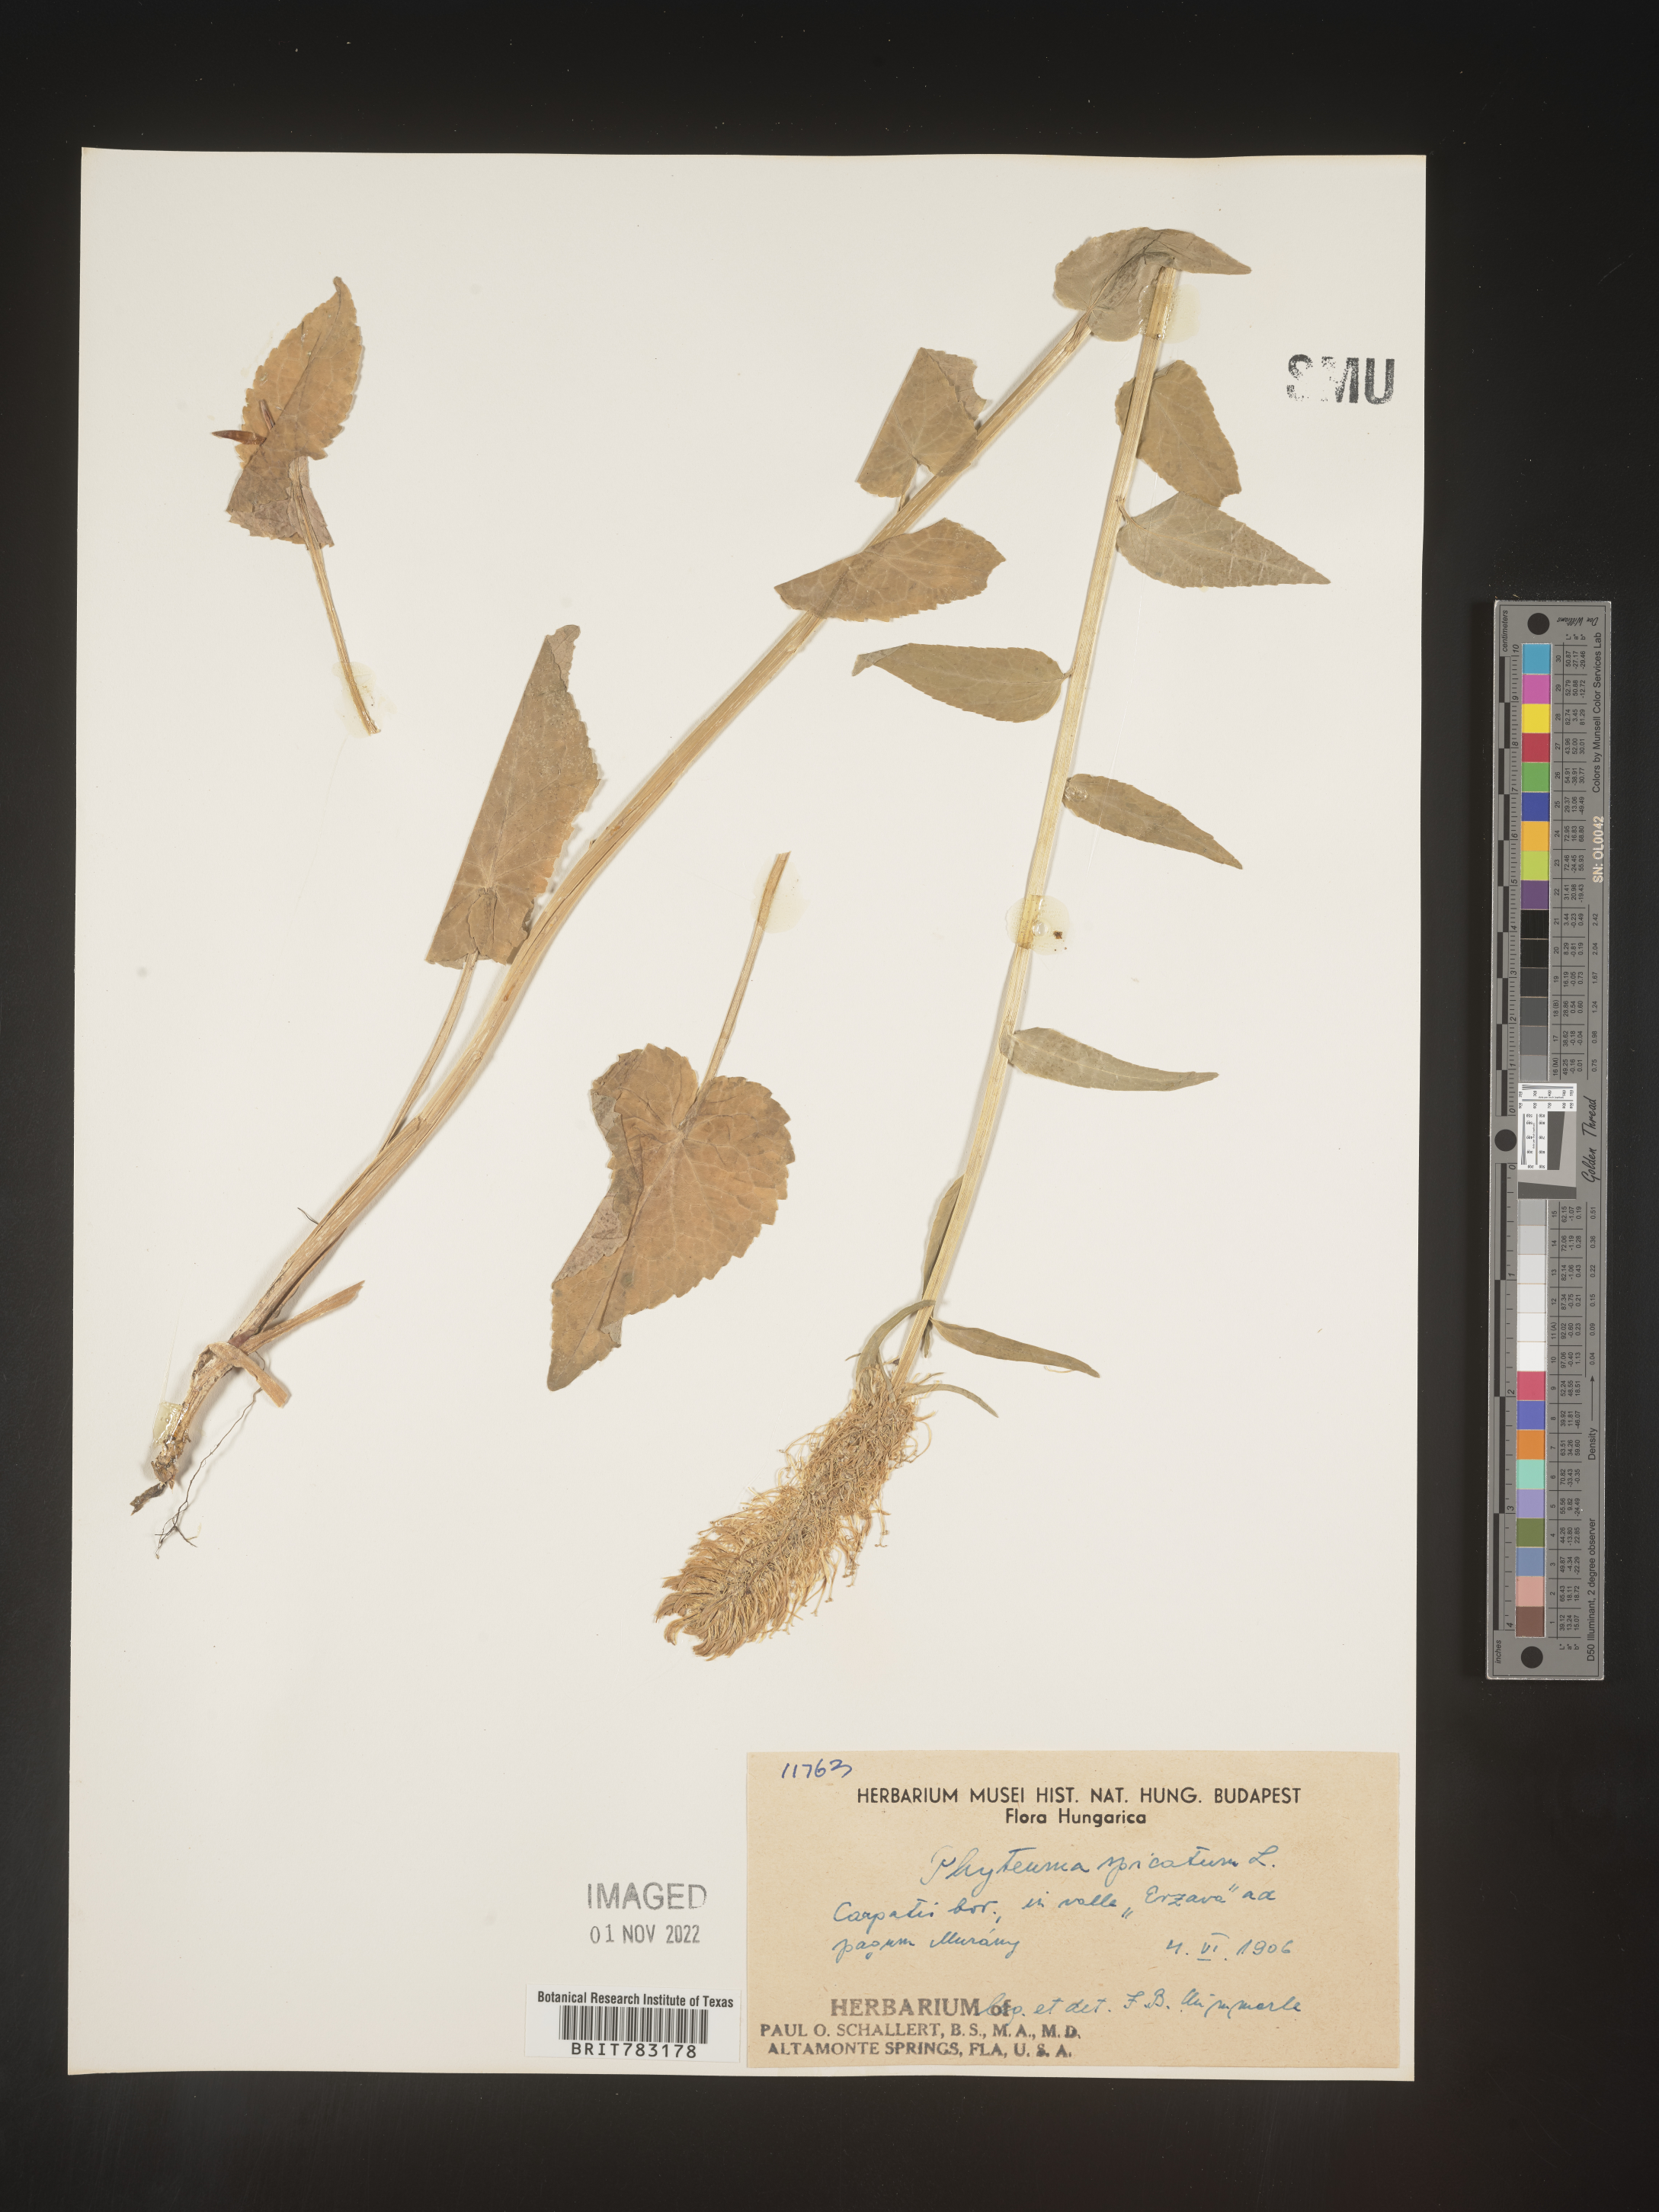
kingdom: Plantae
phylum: Tracheophyta
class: Magnoliopsida
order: Asterales
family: Campanulaceae
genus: Phyteuma
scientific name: Phyteuma
